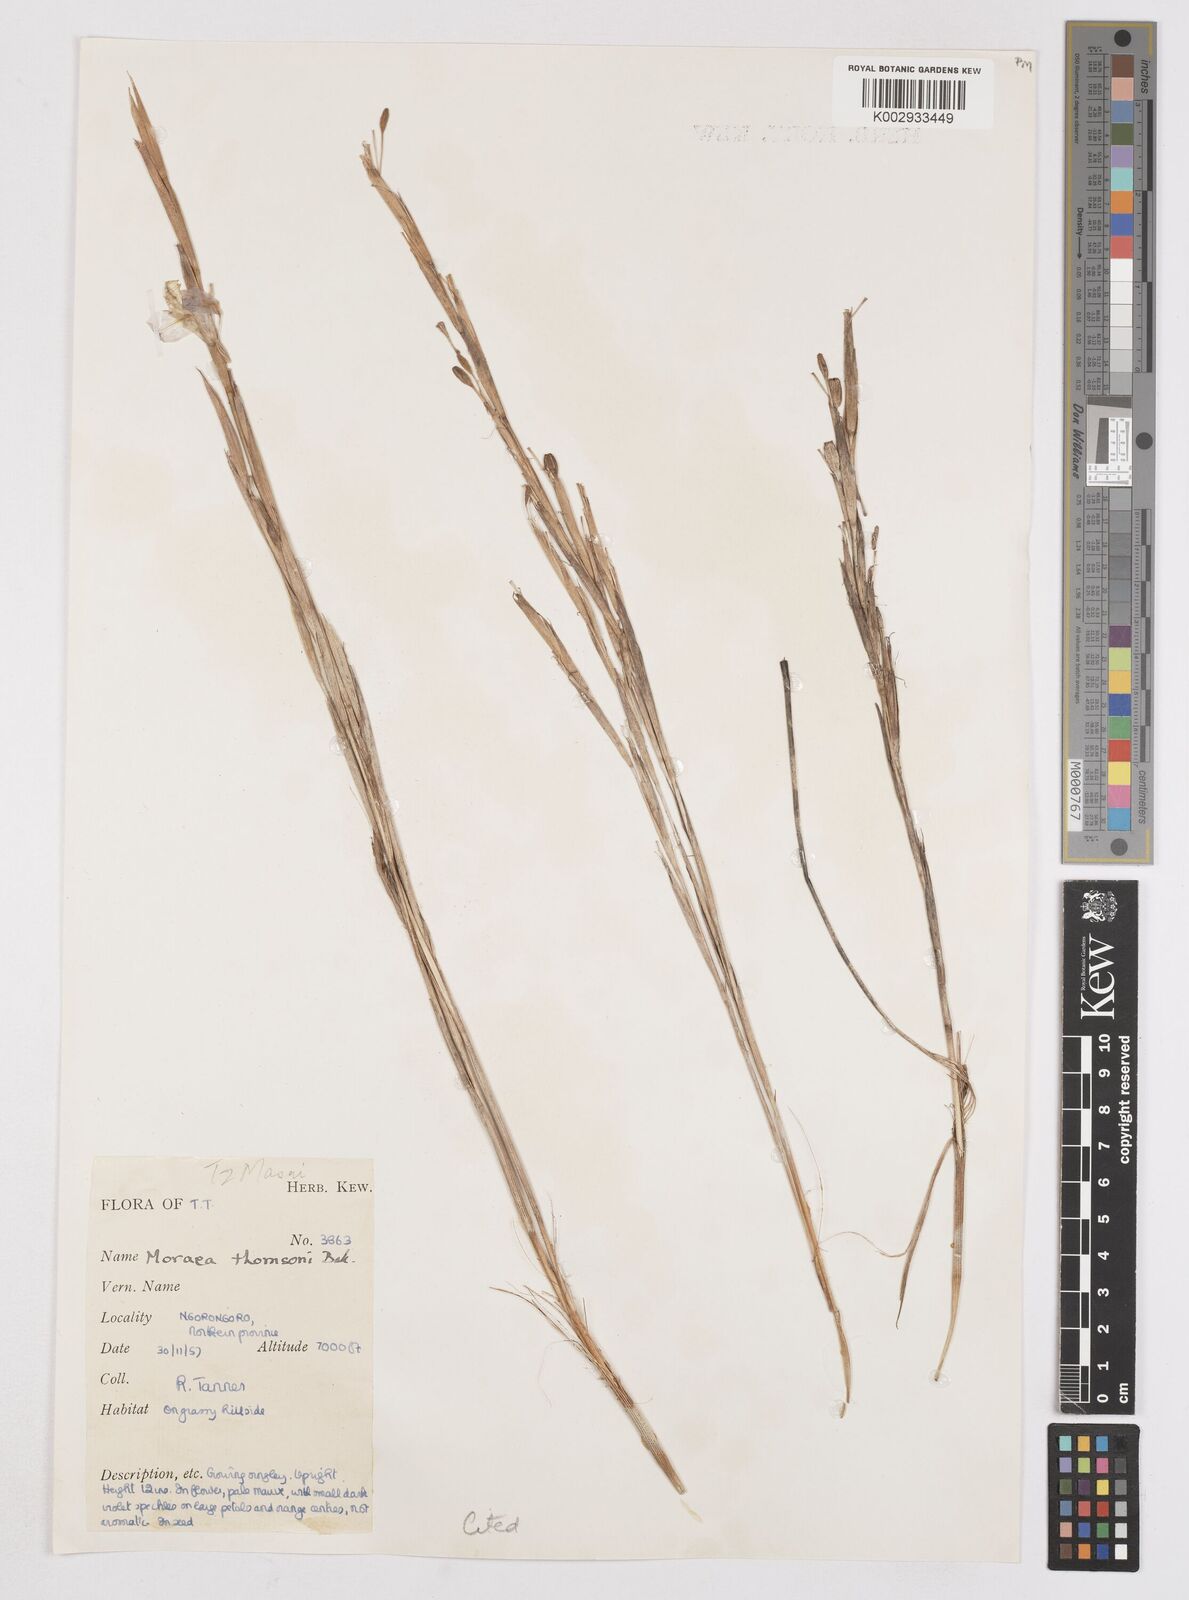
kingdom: Plantae
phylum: Tracheophyta
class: Liliopsida
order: Asparagales
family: Iridaceae
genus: Moraea
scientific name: Moraea stricta
